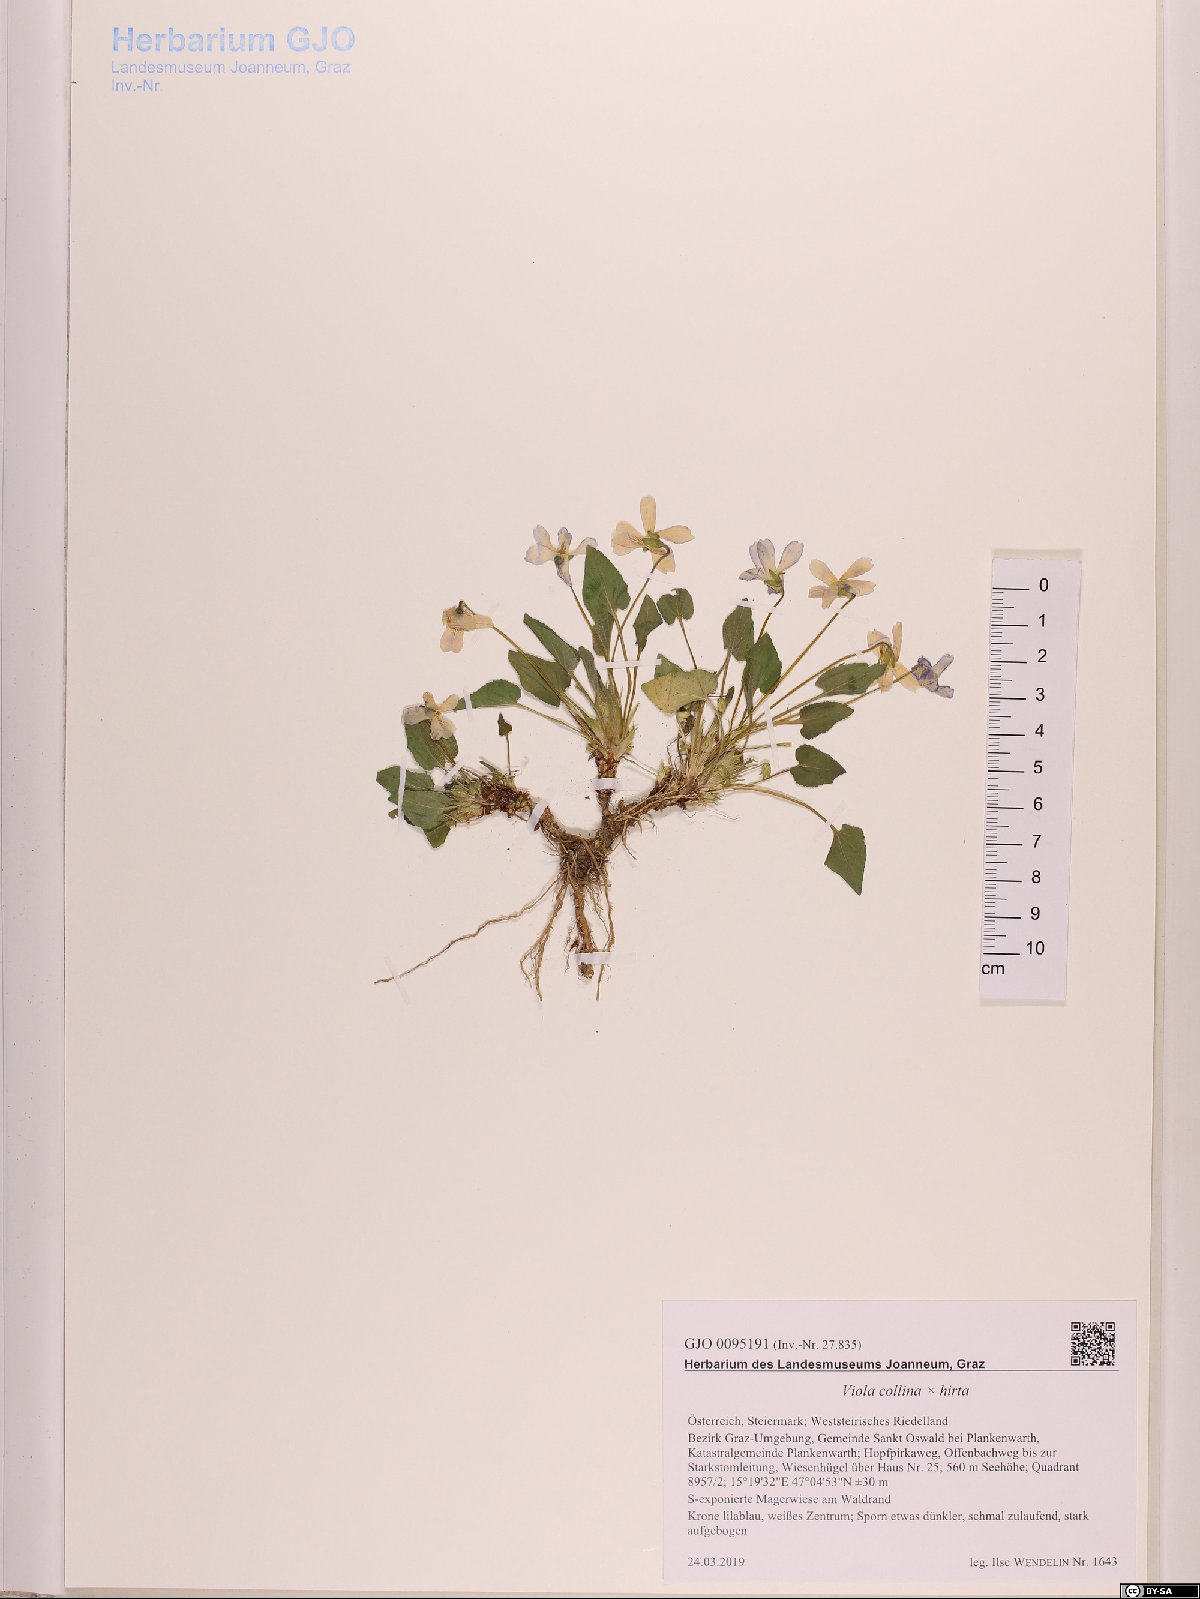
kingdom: Plantae
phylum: Tracheophyta
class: Magnoliopsida
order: Malpighiales
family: Violaceae
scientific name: Violaceae
